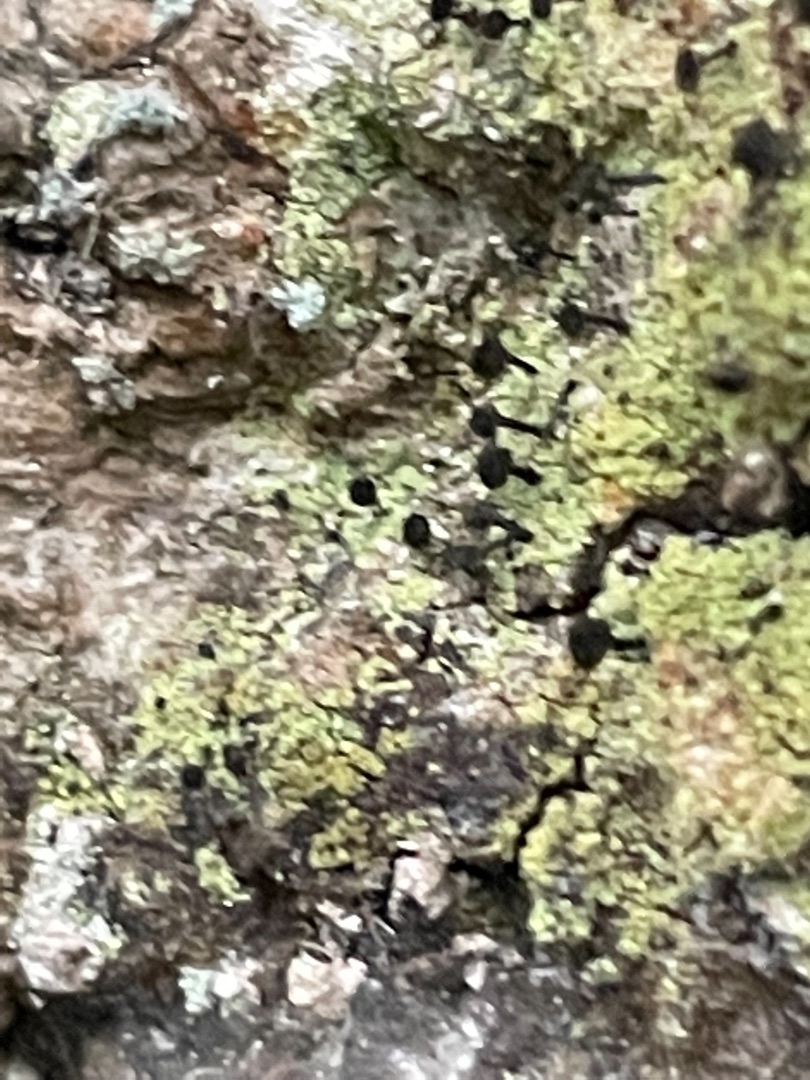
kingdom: Fungi
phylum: Ascomycota
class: Lecanoromycetes
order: Caliciales
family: Caliciaceae
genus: Calicium
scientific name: Calicium viride
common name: Gulgrøn nålelav
